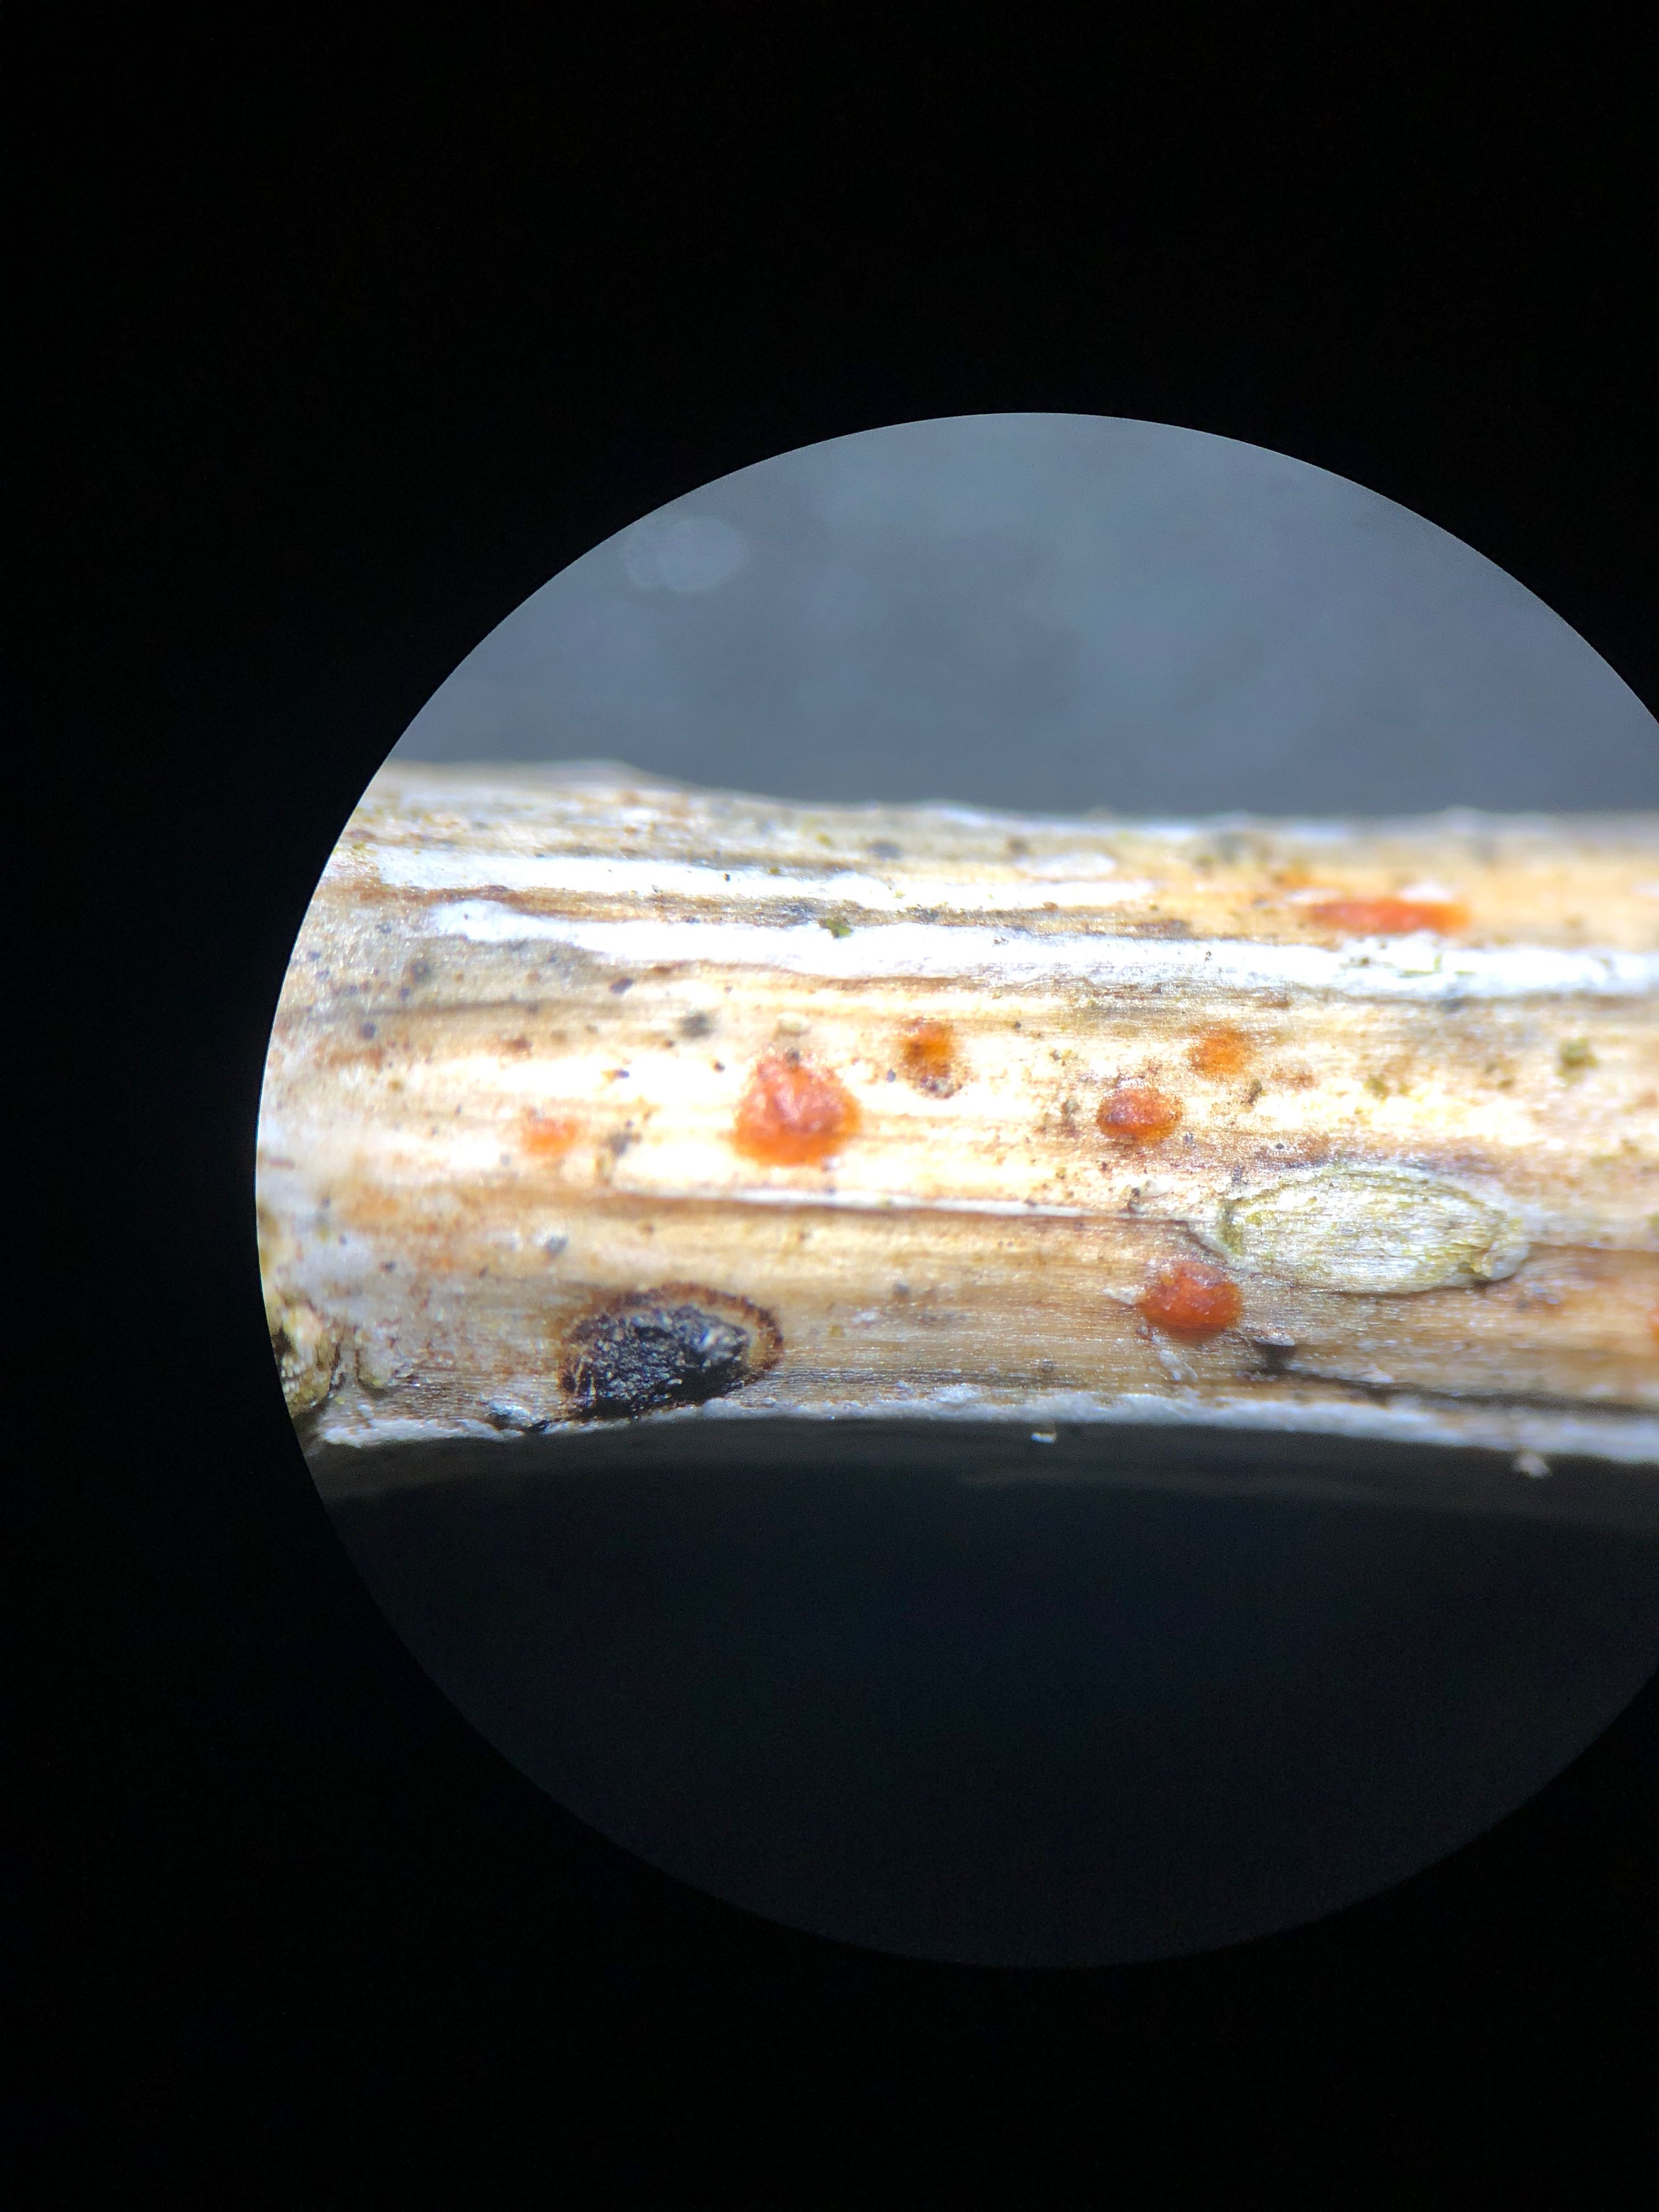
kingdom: Fungi
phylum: Ascomycota
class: Leotiomycetes
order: Helotiales
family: Calloriaceae
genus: Calloria
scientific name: Calloria urticae
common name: nælde-orangeskive
